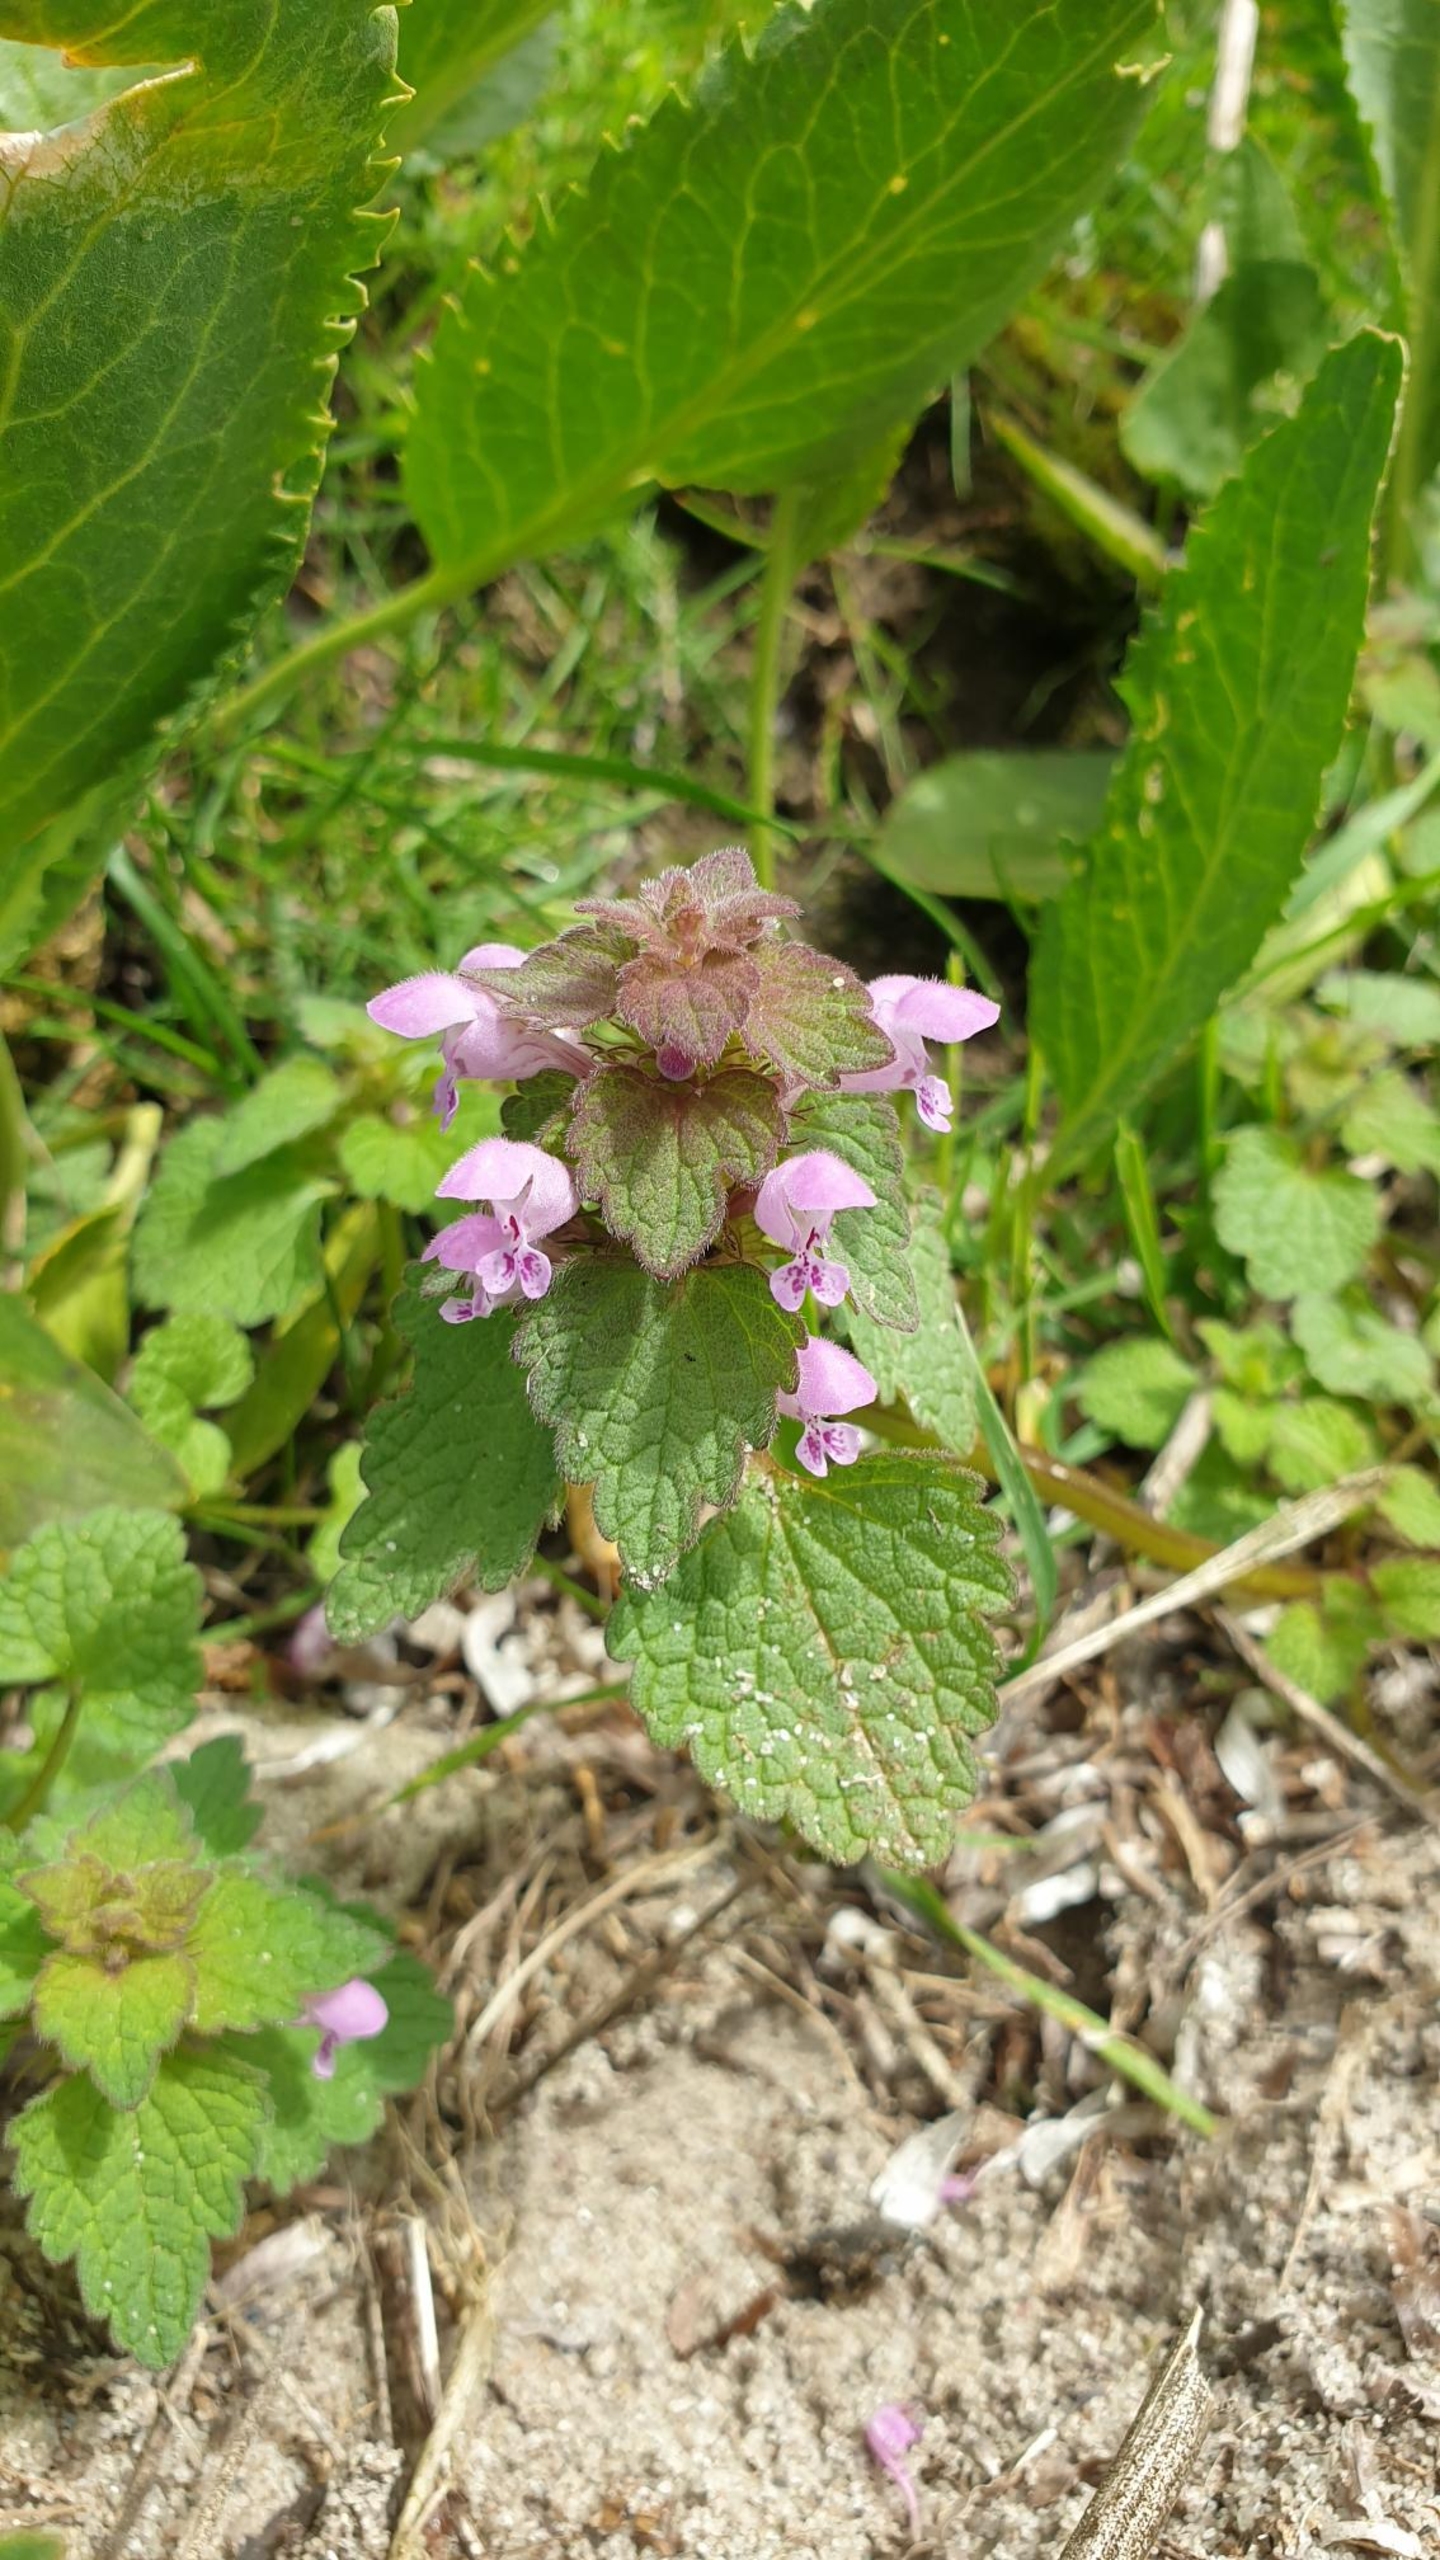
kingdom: Plantae
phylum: Tracheophyta
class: Magnoliopsida
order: Lamiales
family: Lamiaceae
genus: Lamium
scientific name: Lamium purpureum
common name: Rød tvetand
